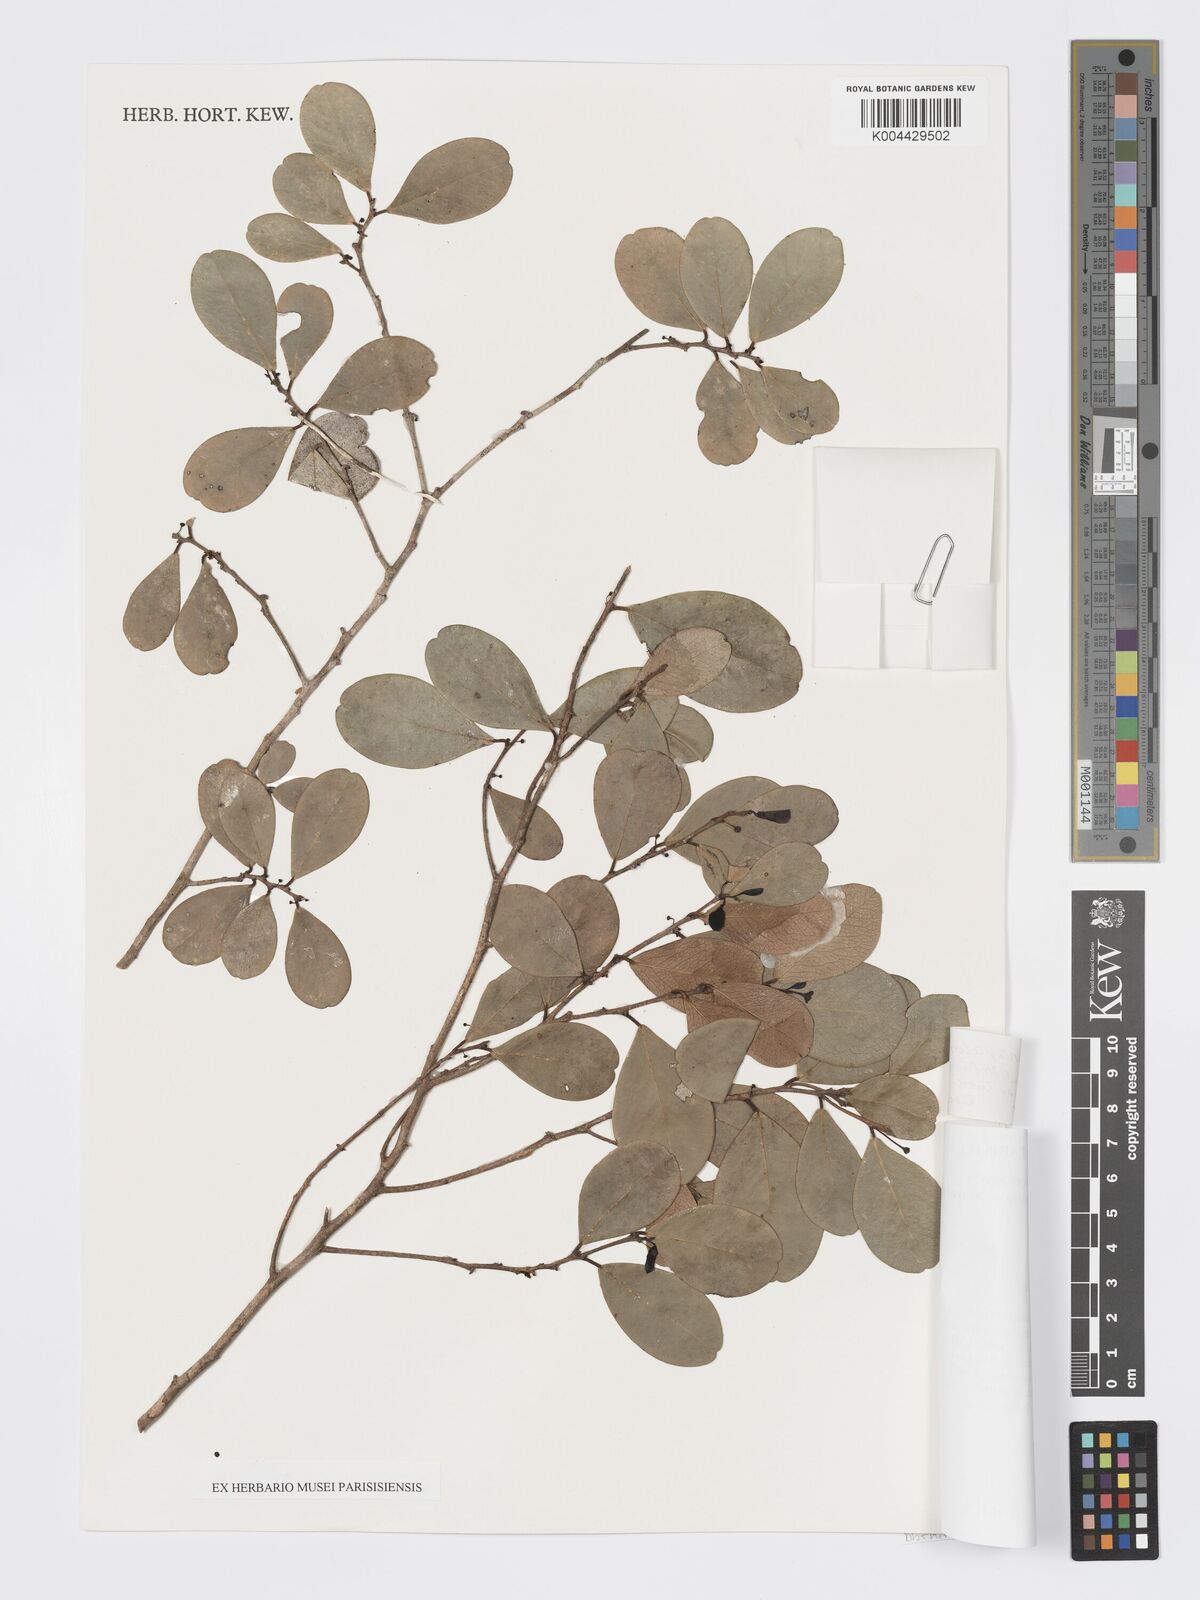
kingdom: Plantae
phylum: Tracheophyta
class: Magnoliopsida
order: Malpighiales
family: Phyllanthaceae
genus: Wielandia
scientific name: Wielandia ranavalonae
